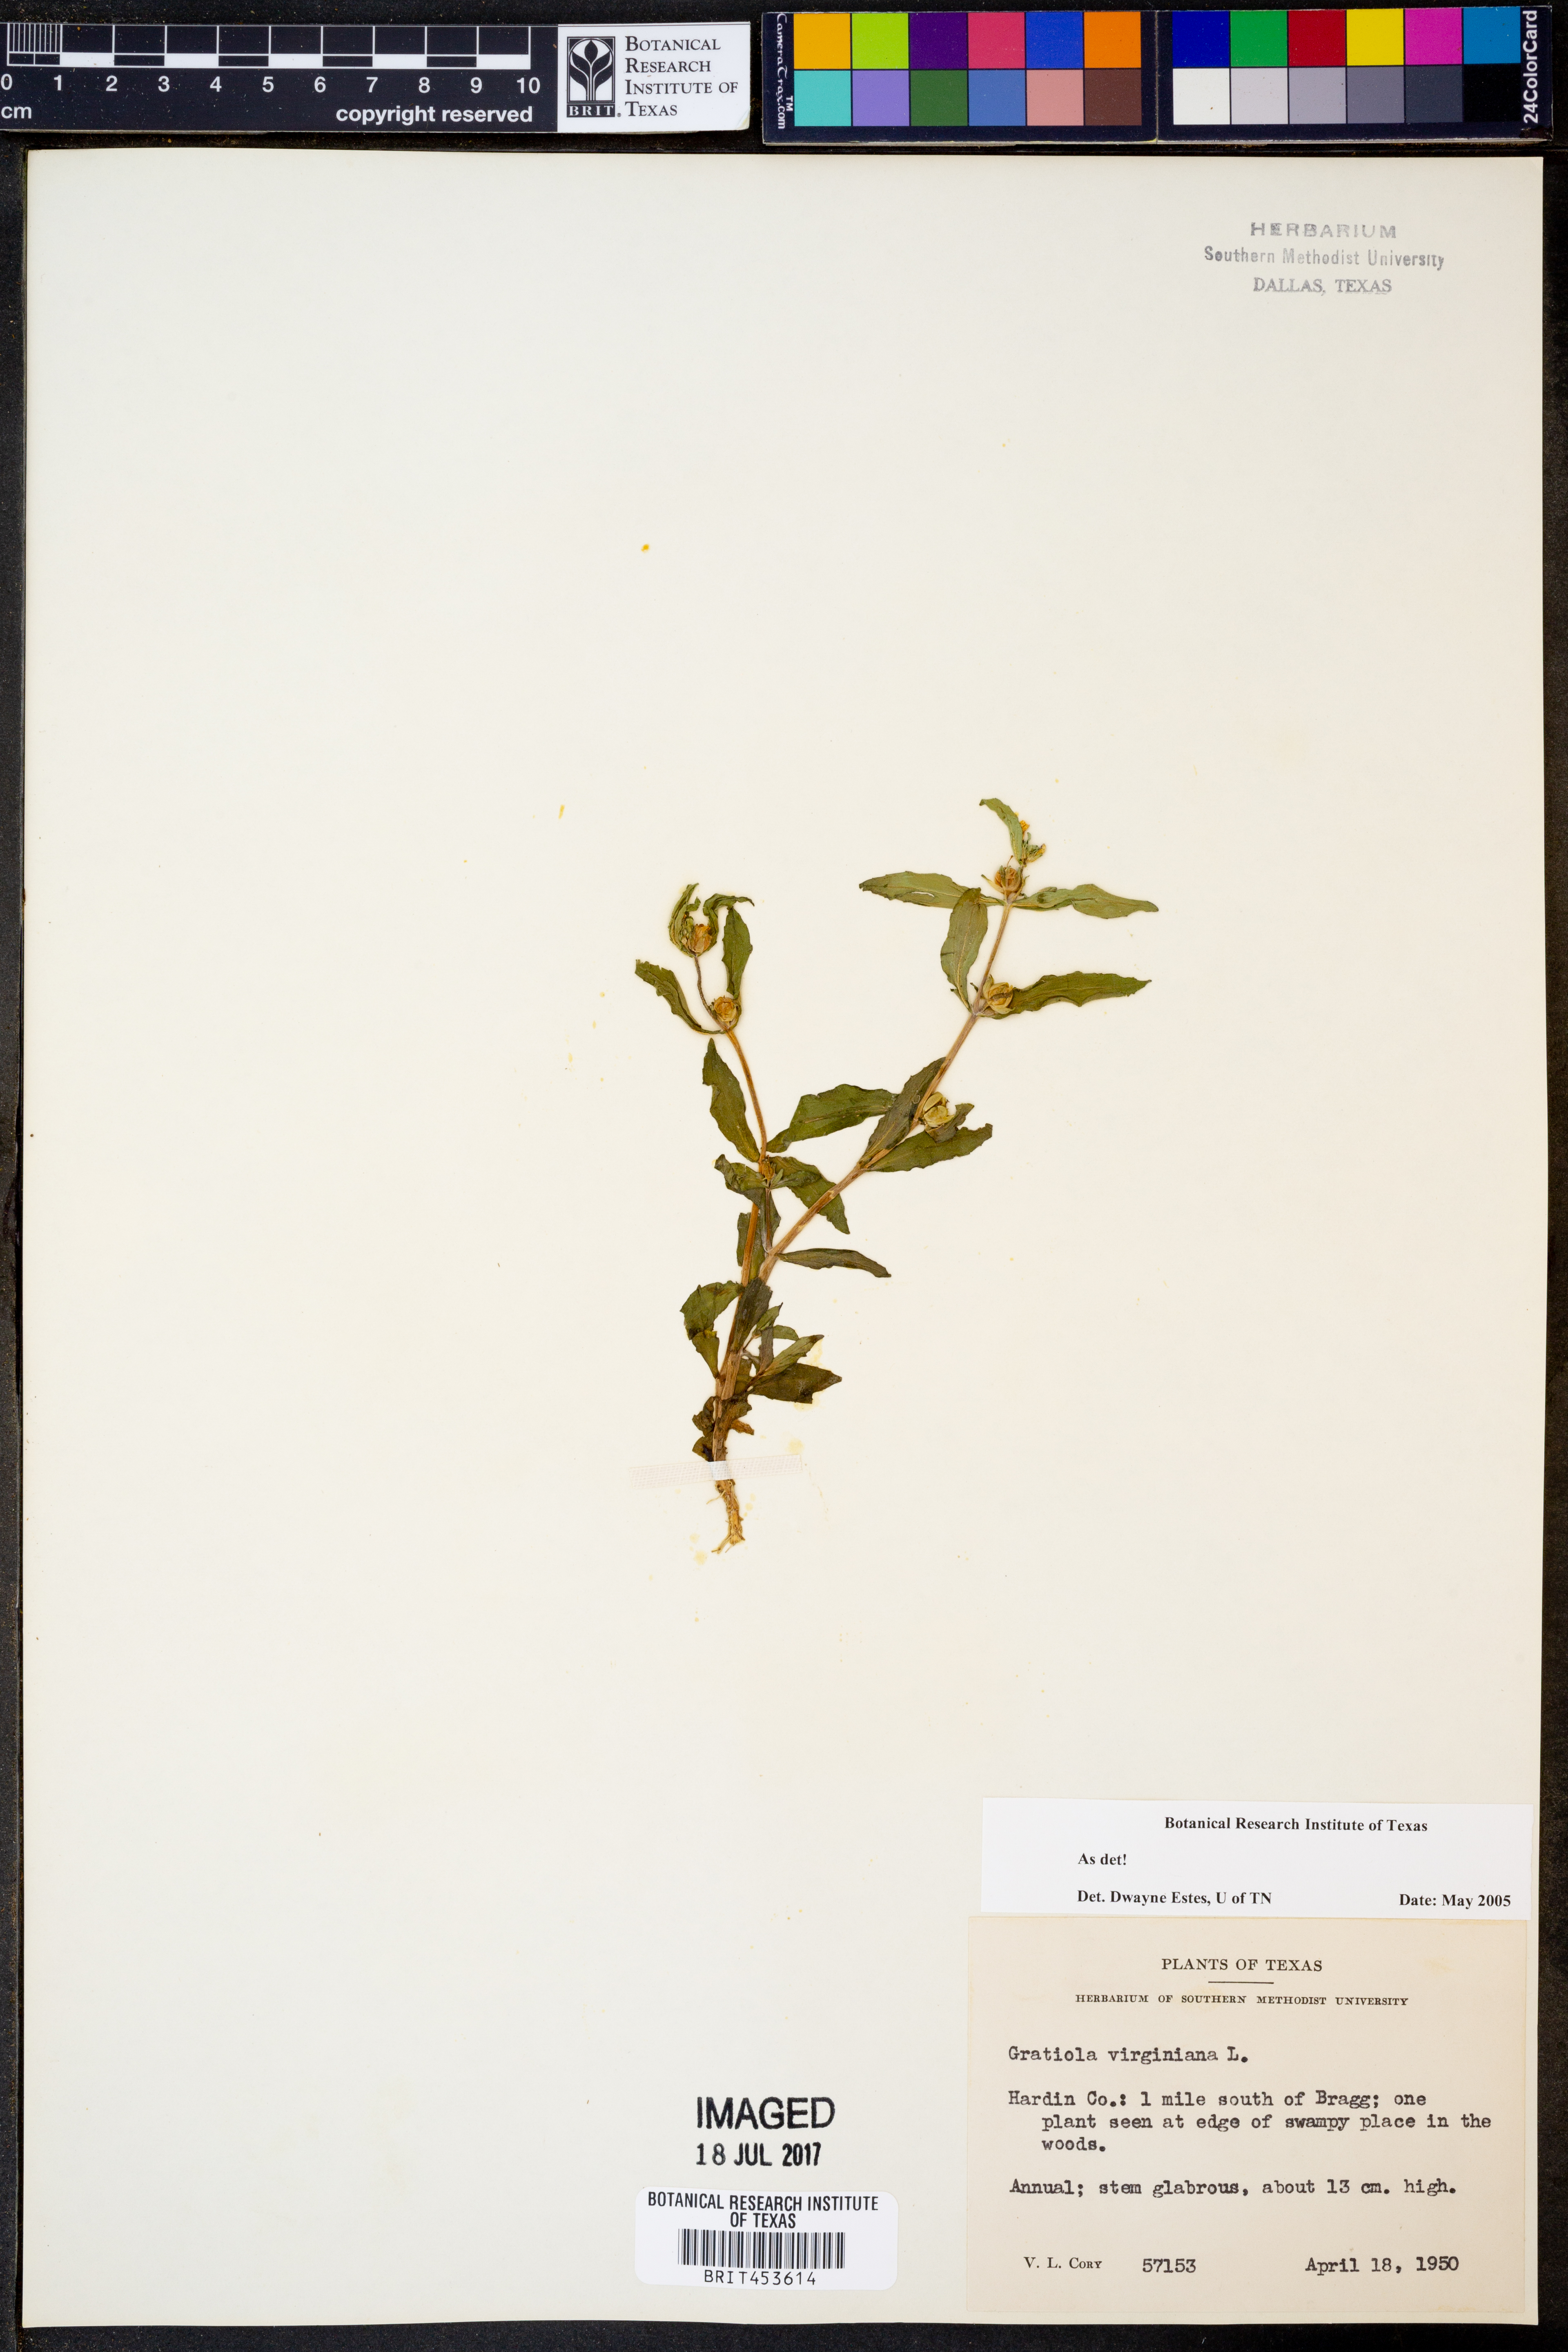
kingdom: Plantae
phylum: Tracheophyta
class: Magnoliopsida
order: Lamiales
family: Plantaginaceae
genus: Gratiola
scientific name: Gratiola virginiana
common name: Roundfruit hedgehyssop
